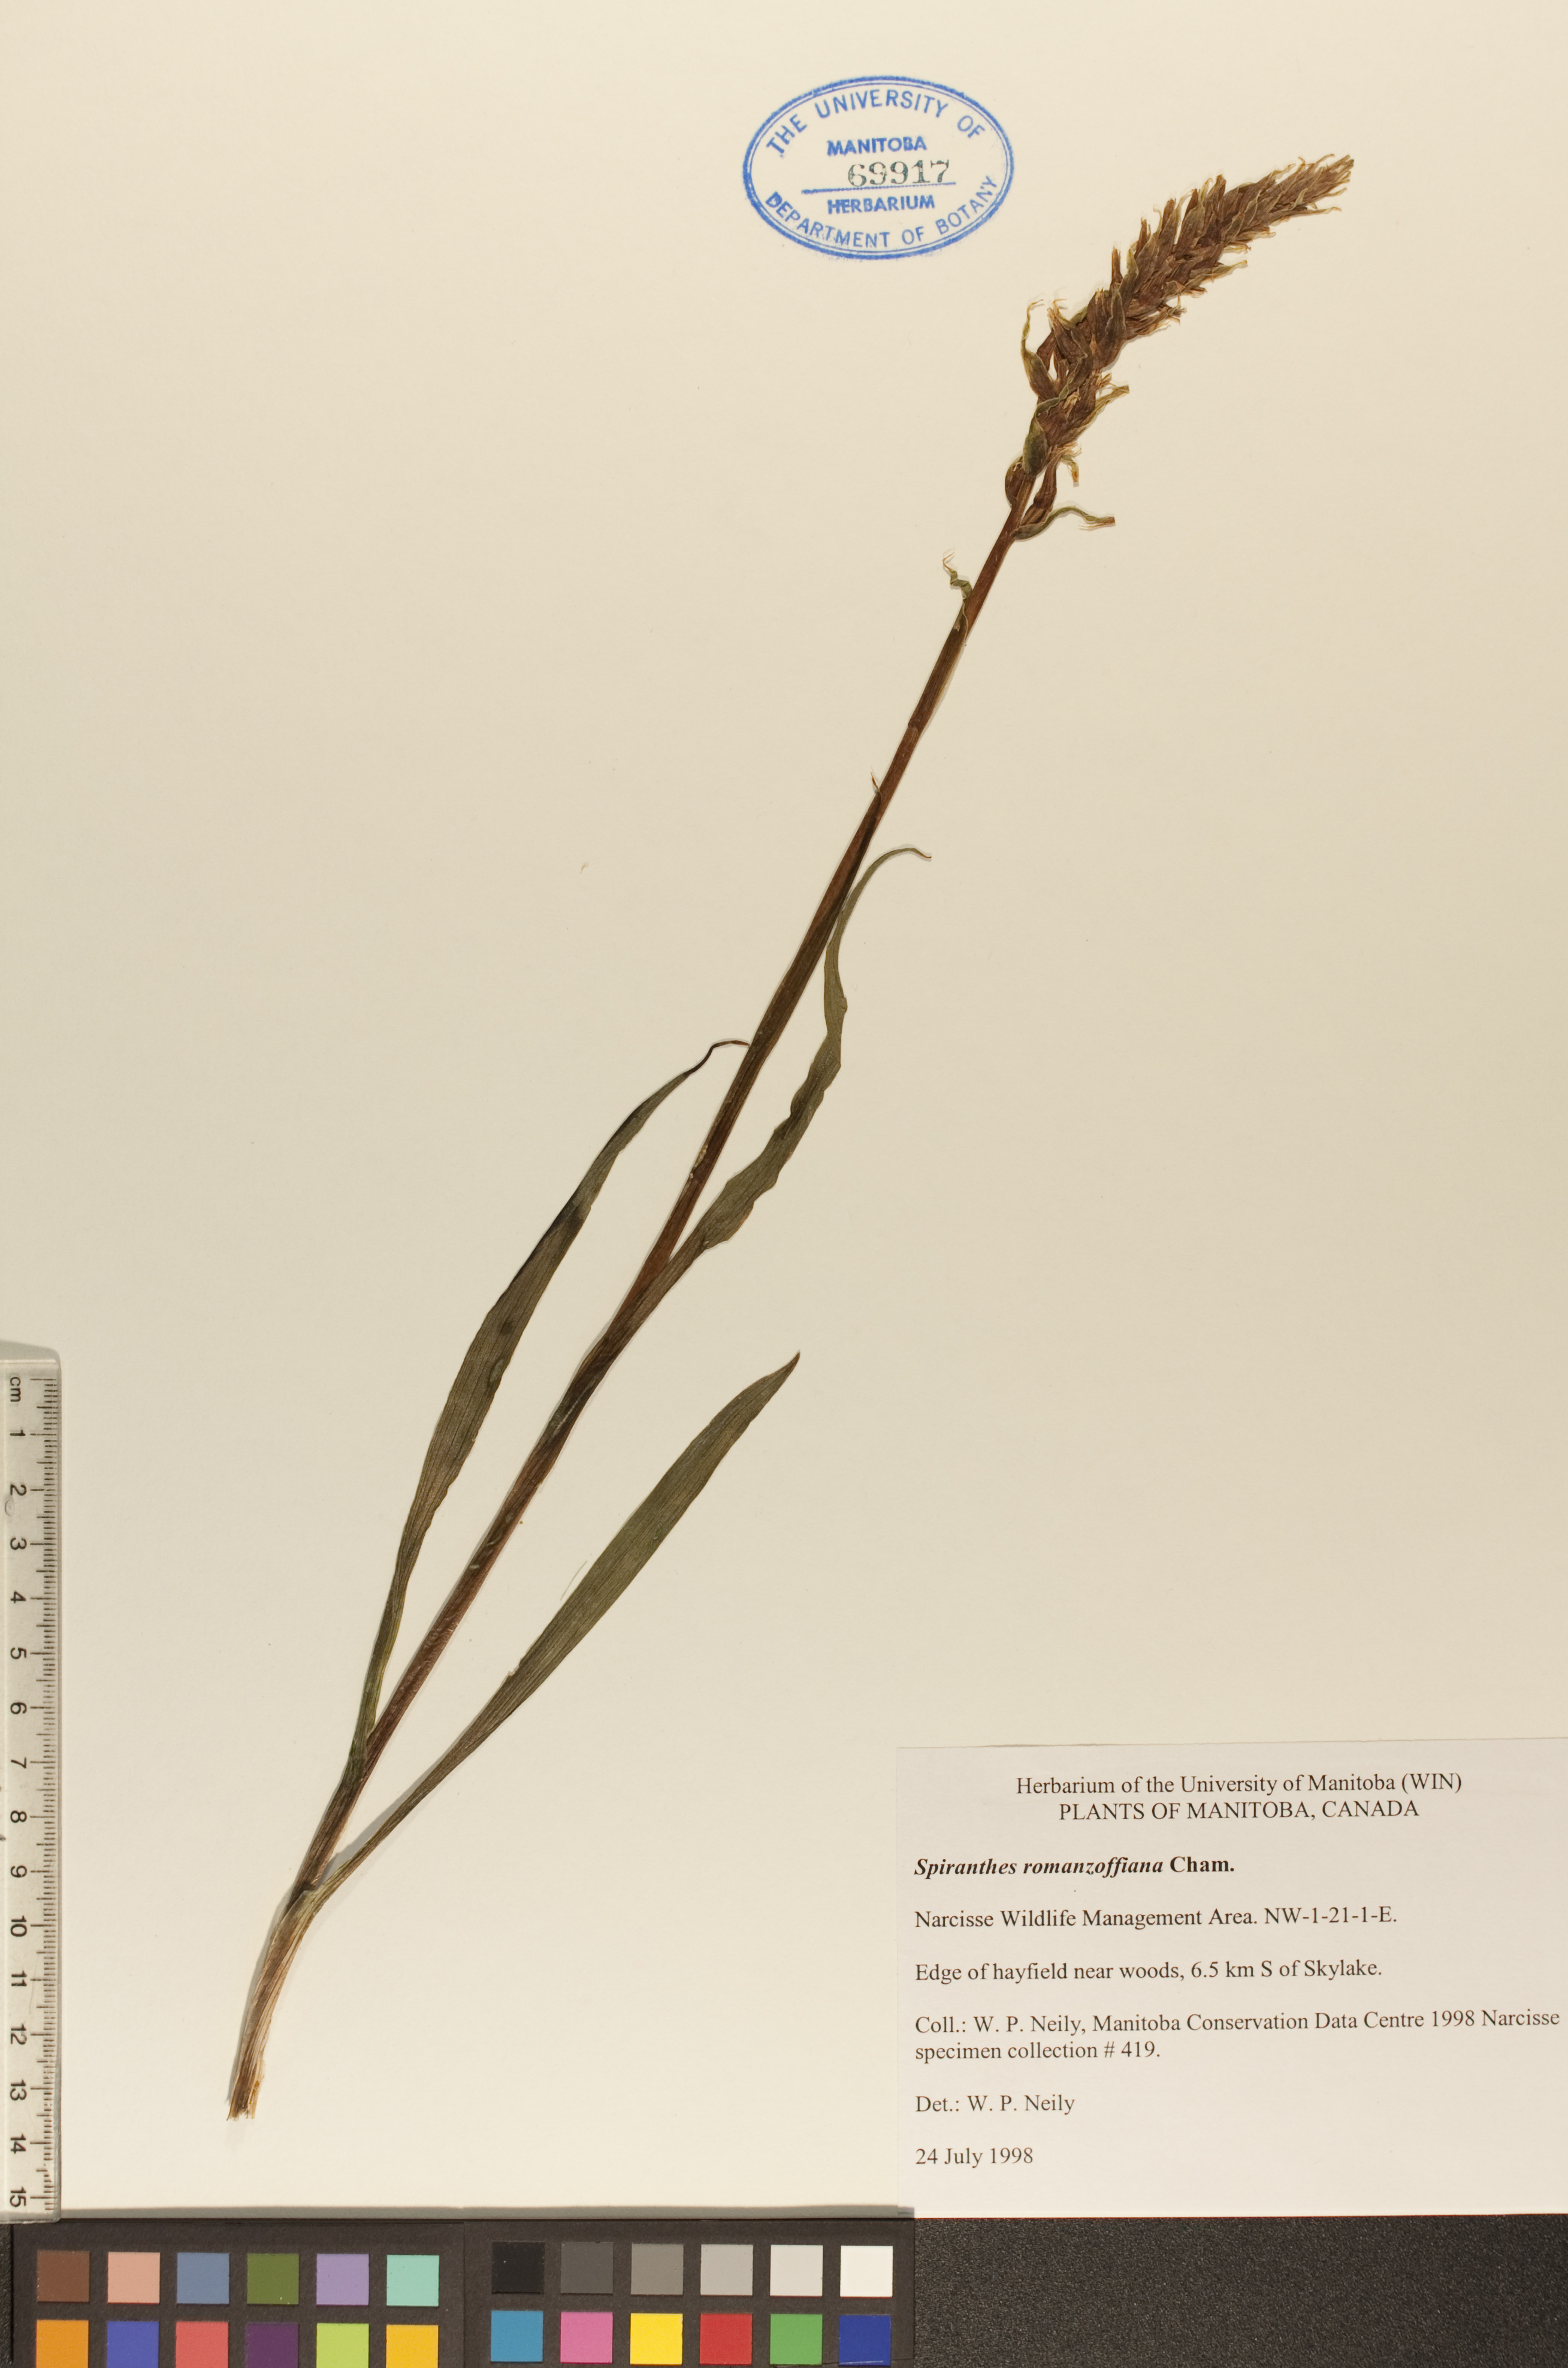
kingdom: Plantae
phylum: Tracheophyta
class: Liliopsida
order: Asparagales
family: Orchidaceae
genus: Spiranthes
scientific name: Spiranthes romanzoffiana
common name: Irish lady's-tresses
